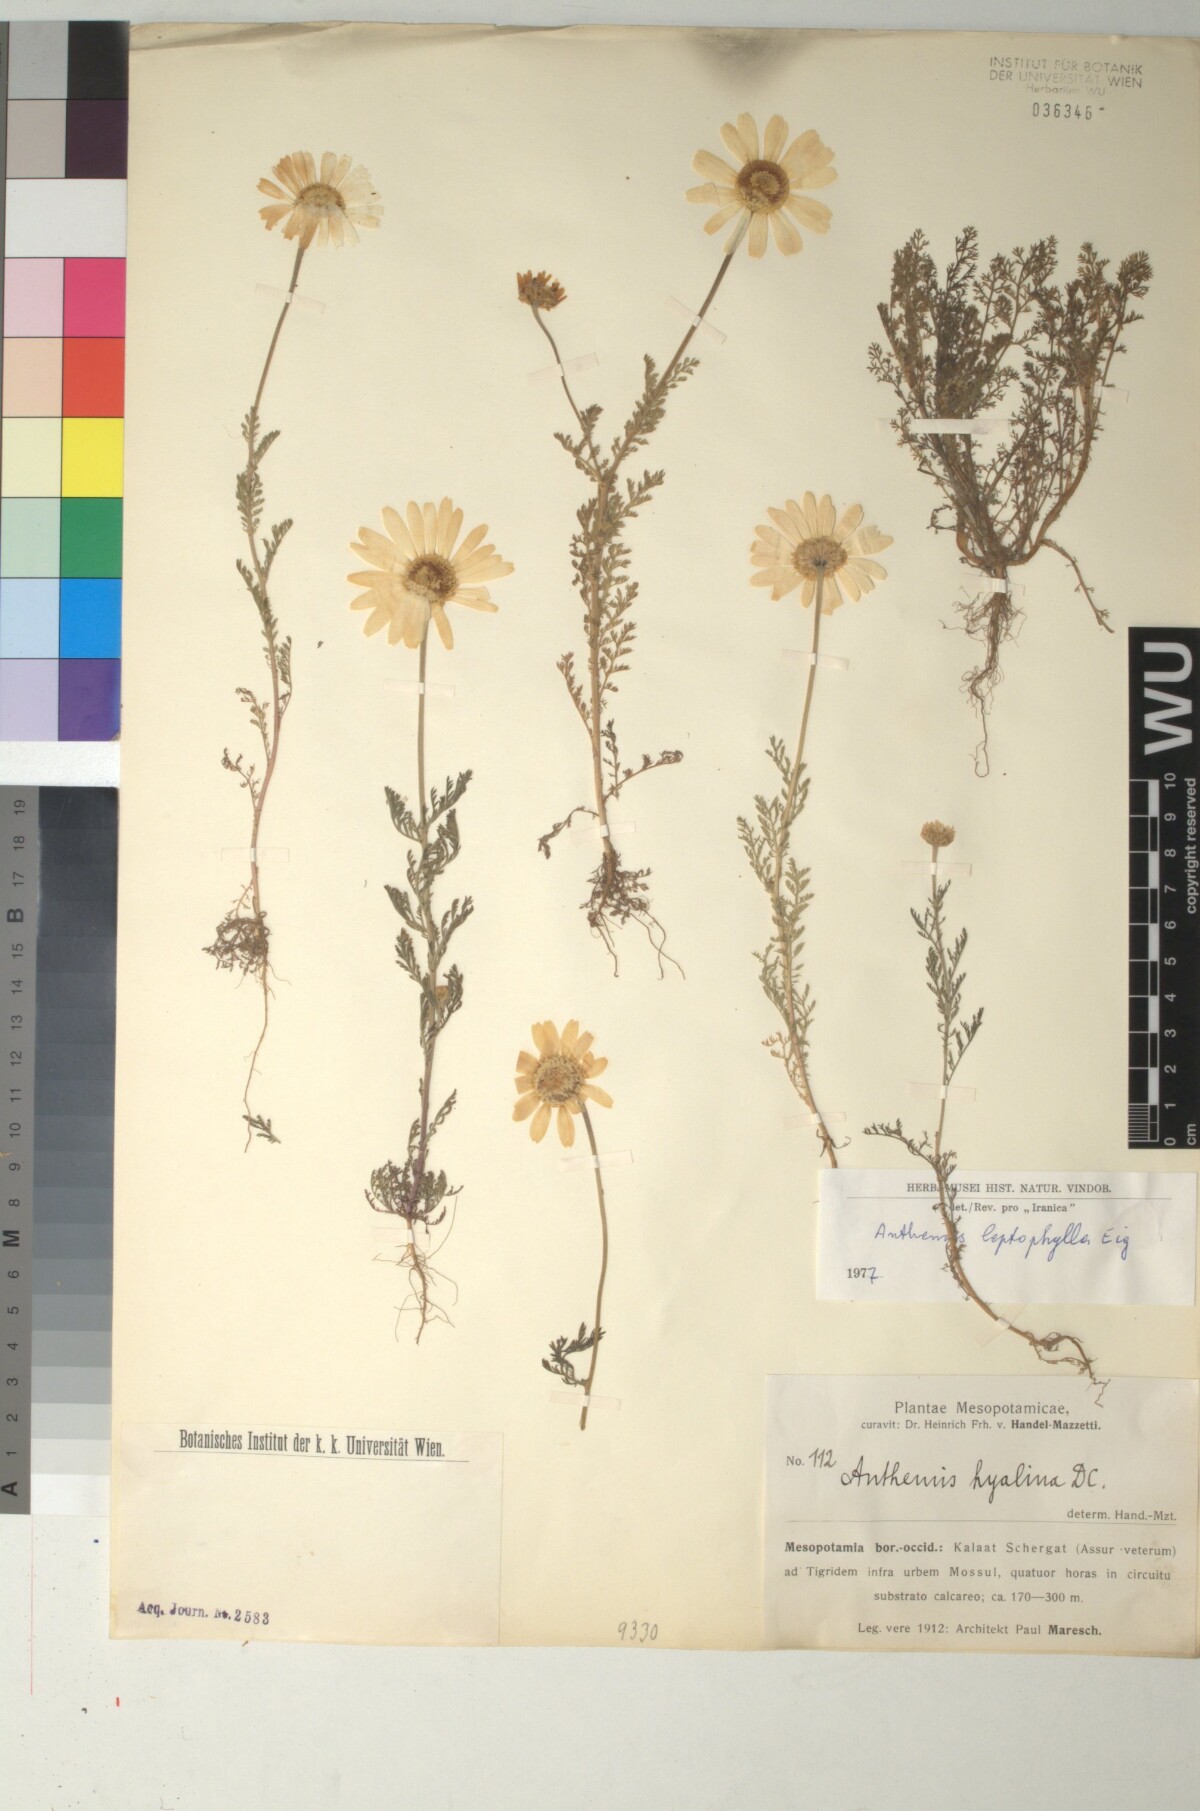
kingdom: Plantae
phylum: Tracheophyta
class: Magnoliopsida
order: Asterales
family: Asteraceae
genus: Anthemis
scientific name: Anthemis leptophylla
